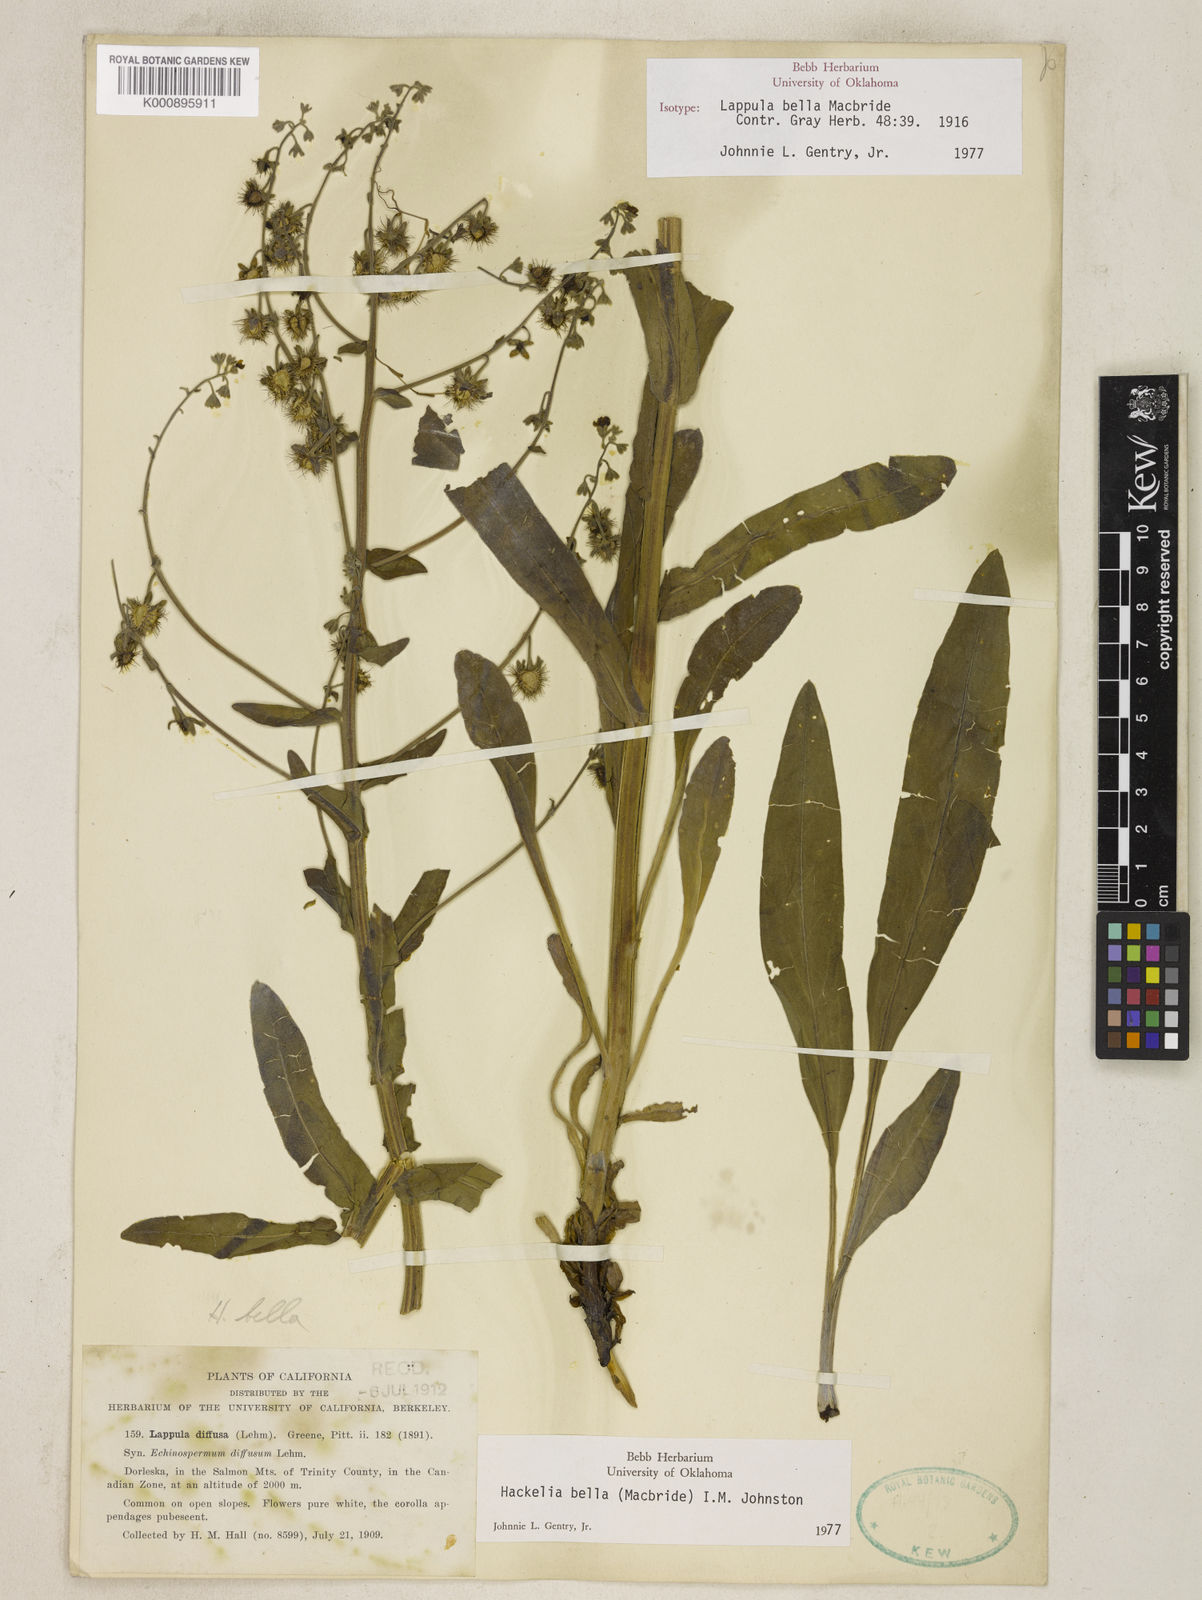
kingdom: Plantae
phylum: Tracheophyta
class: Magnoliopsida
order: Boraginales
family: Boraginaceae
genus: Hackelia
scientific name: Hackelia bella
